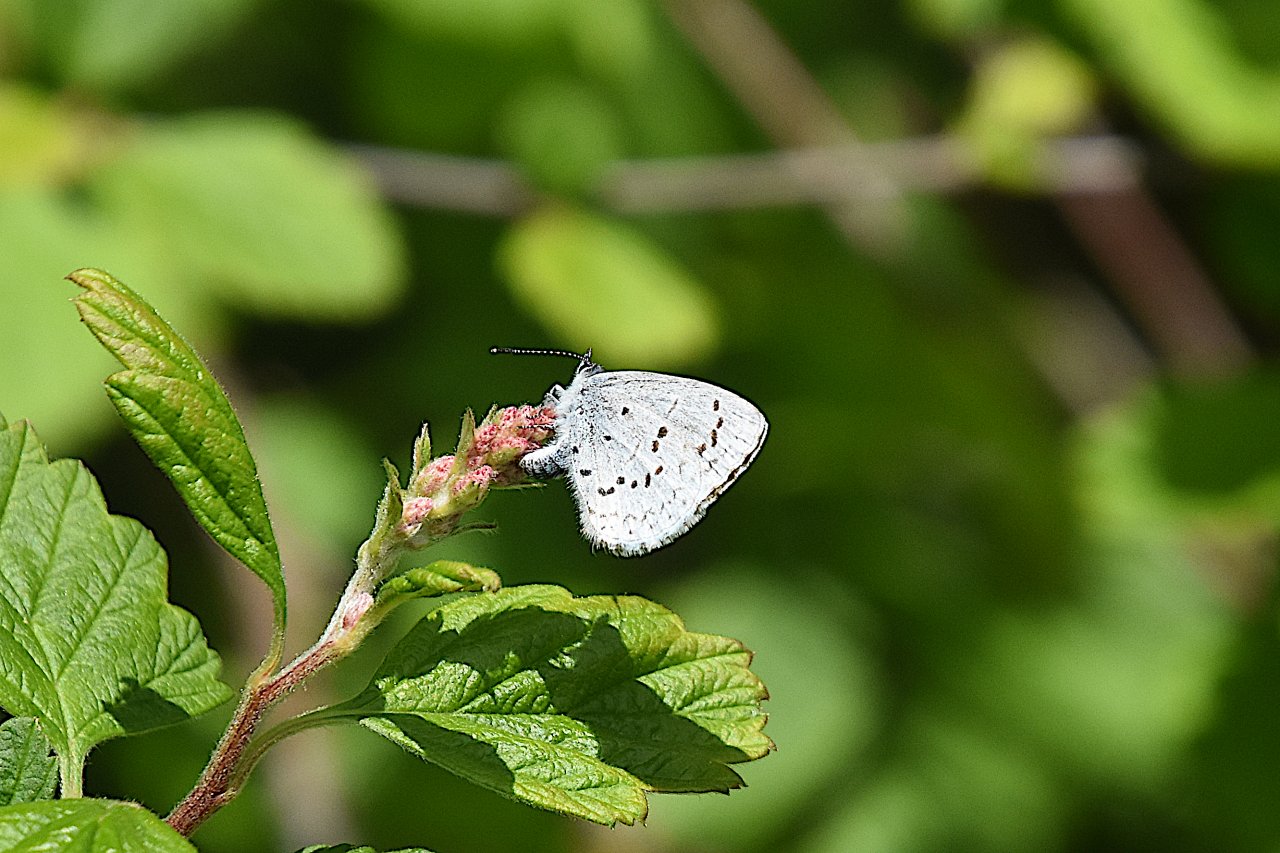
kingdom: Animalia
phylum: Arthropoda
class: Insecta
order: Lepidoptera
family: Lycaenidae
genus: Celastrina
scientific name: Celastrina ladon
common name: Echo Azure
